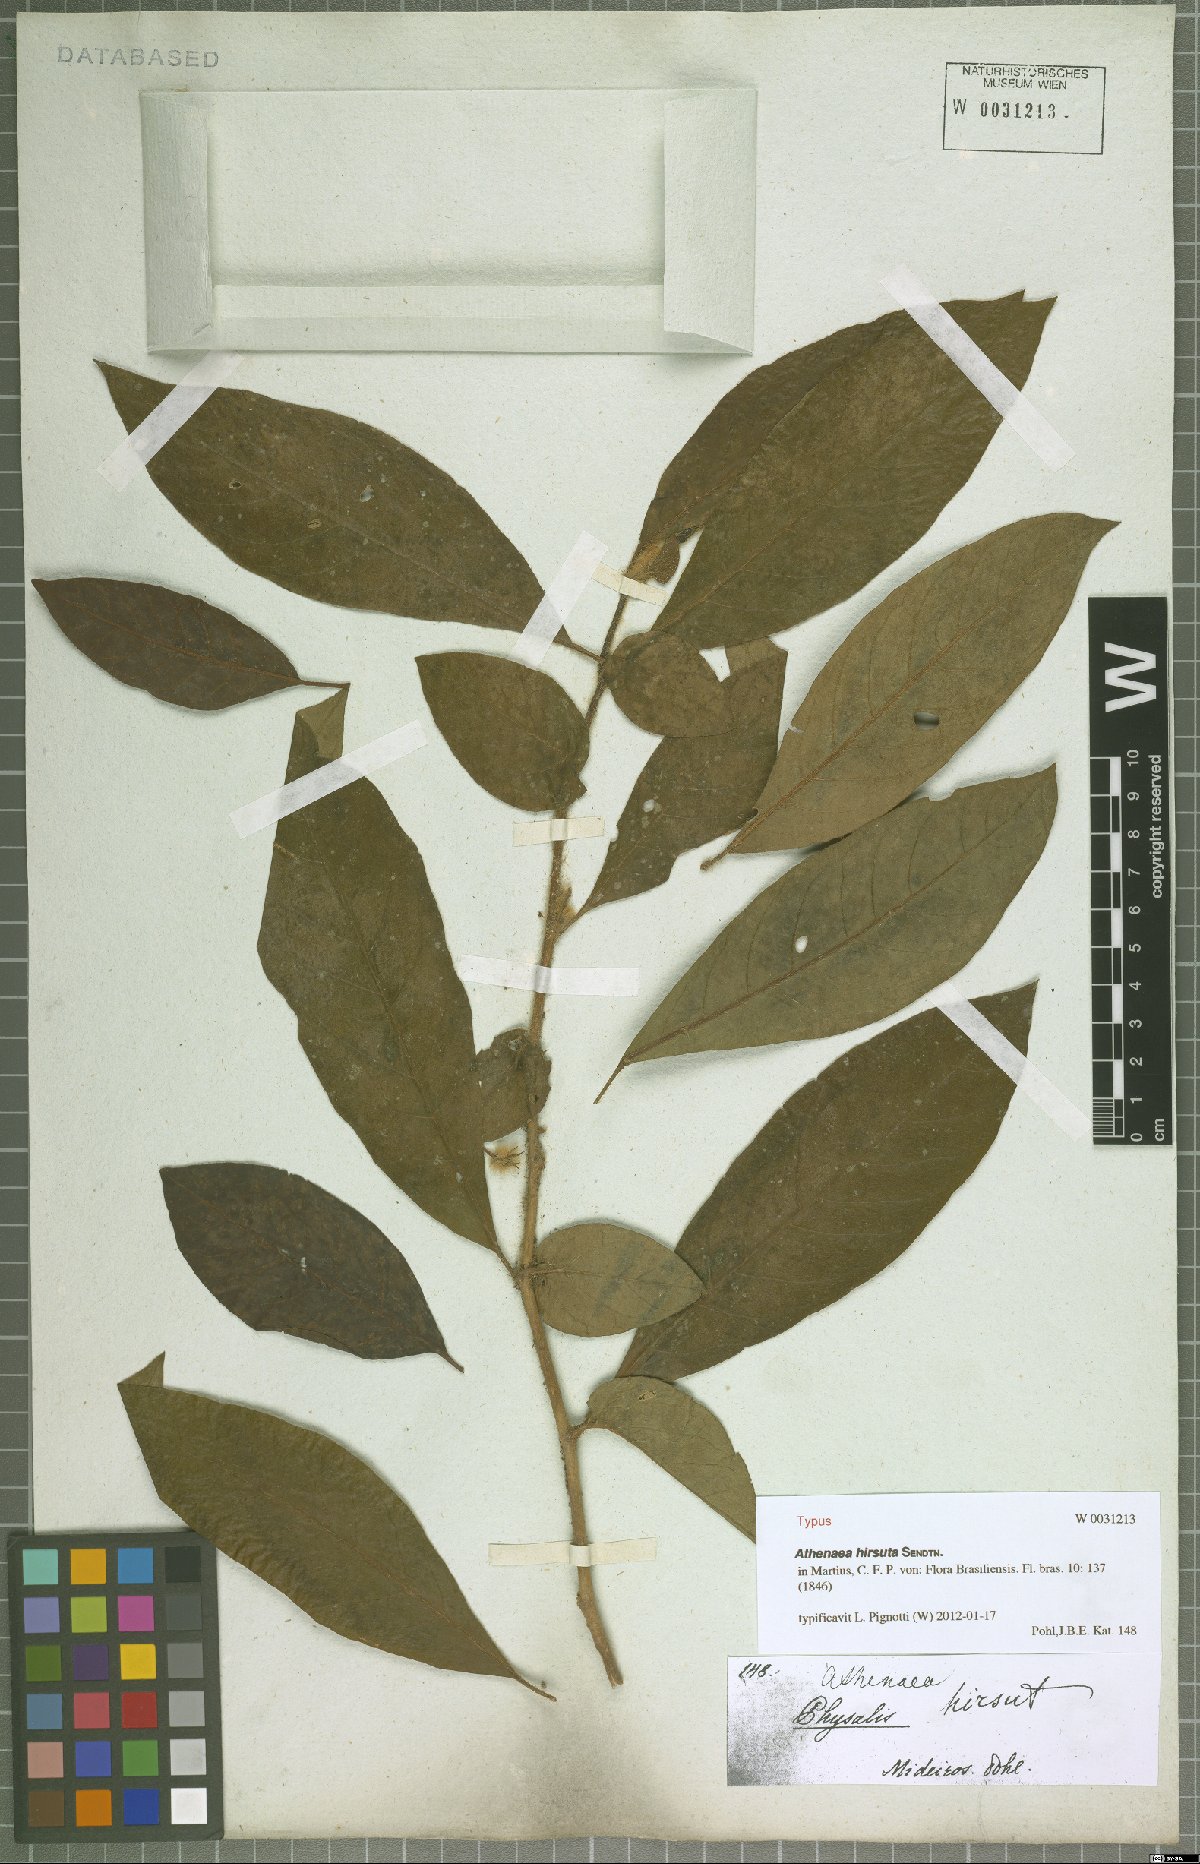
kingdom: Plantae
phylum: Tracheophyta
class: Magnoliopsida
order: Solanales
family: Solanaceae
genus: Athenaea
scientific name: Athenaea martiana
